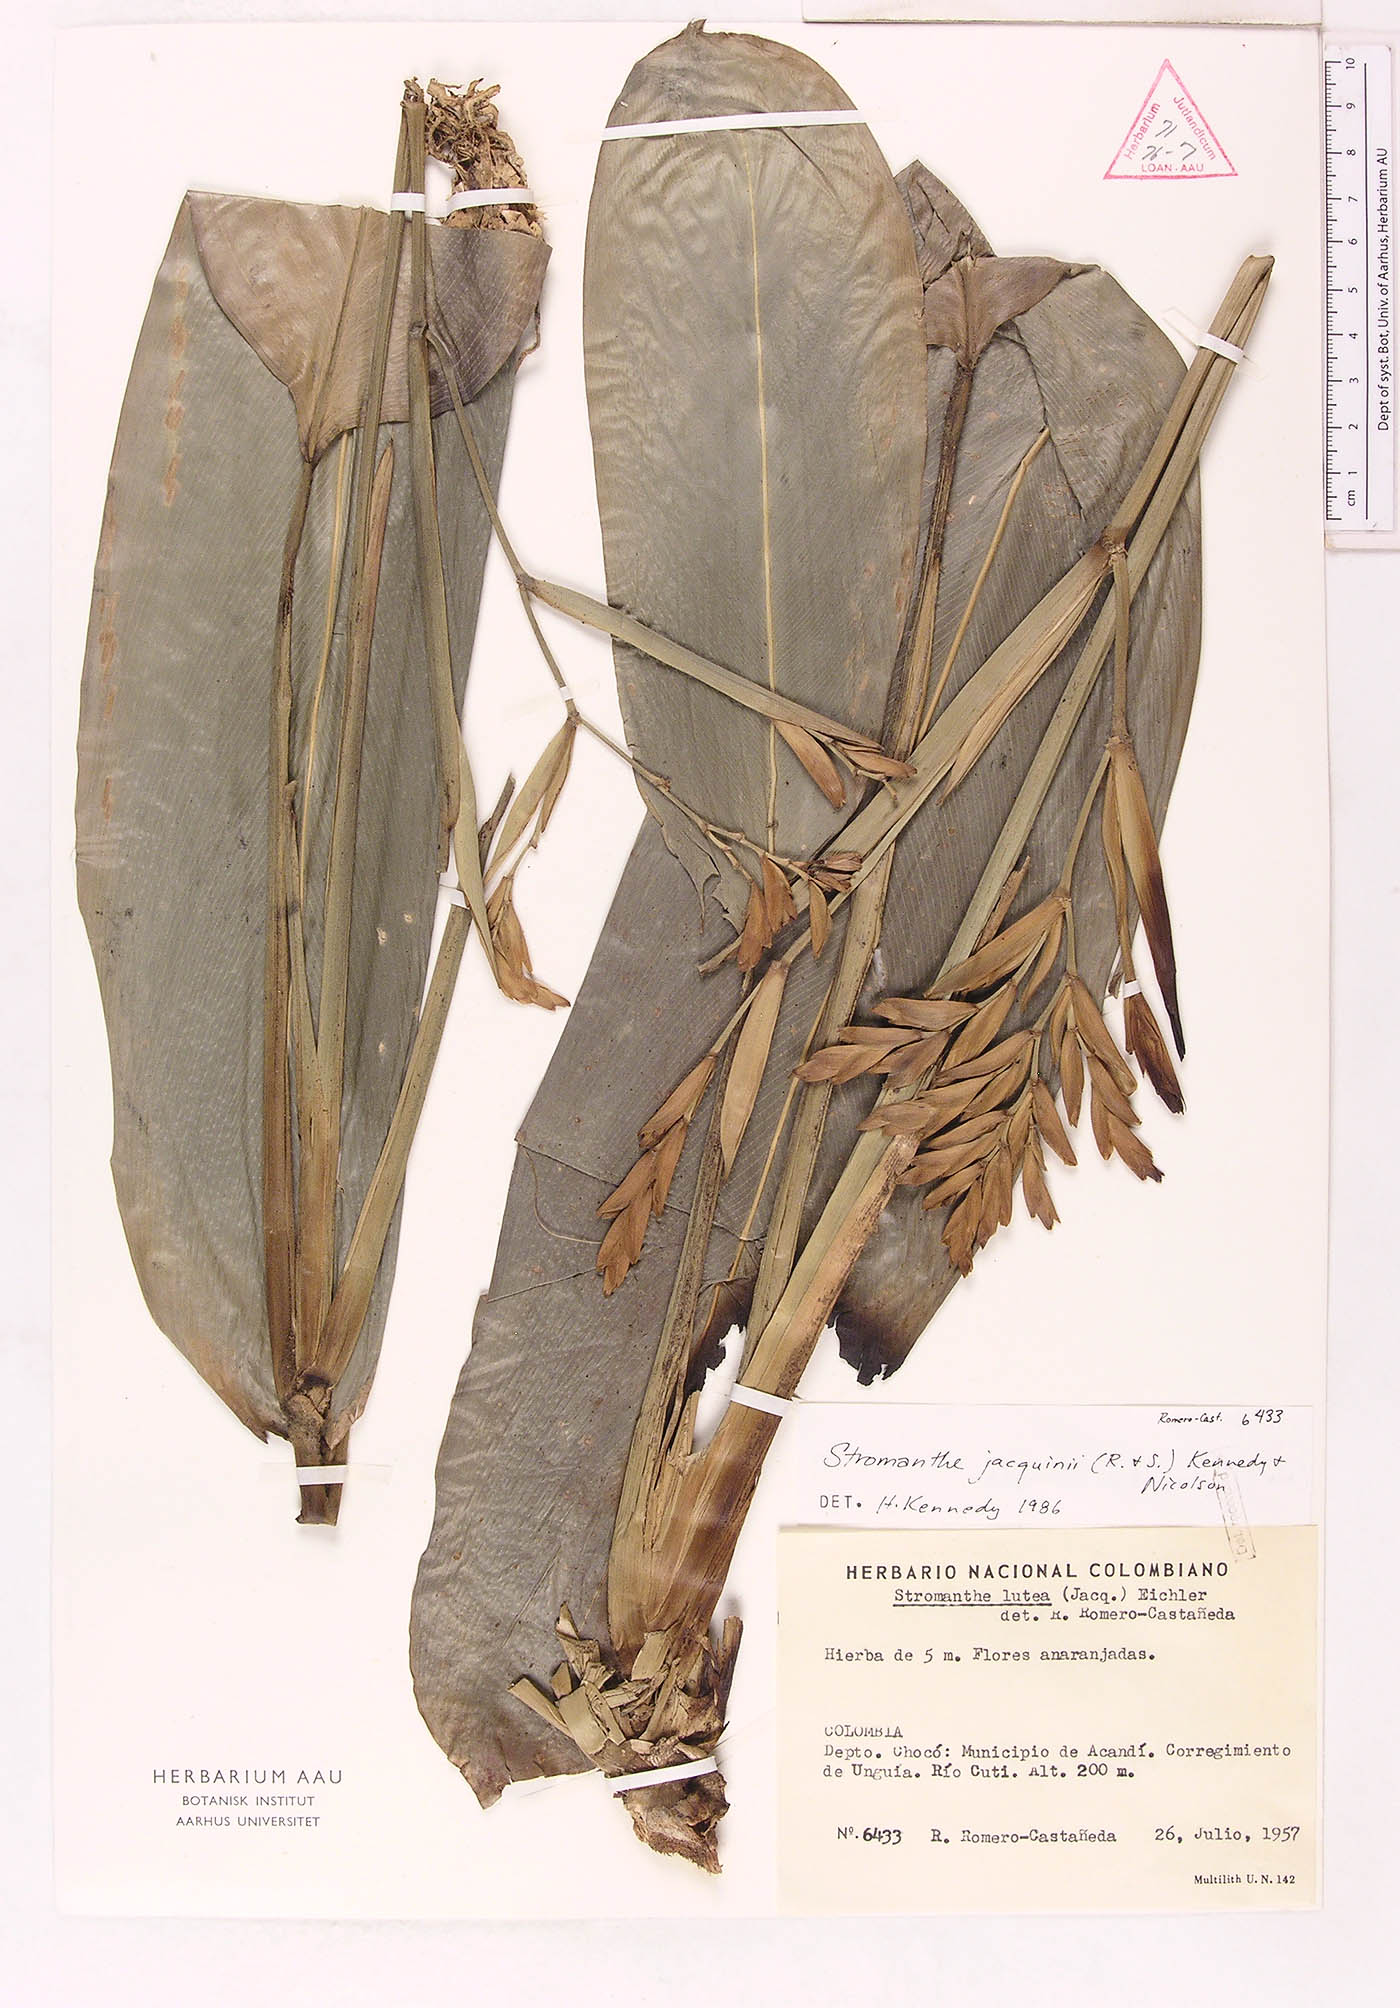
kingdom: Plantae
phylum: Tracheophyta
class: Liliopsida
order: Zingiberales
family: Marantaceae
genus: Stromanthe
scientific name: Stromanthe jacquinii
